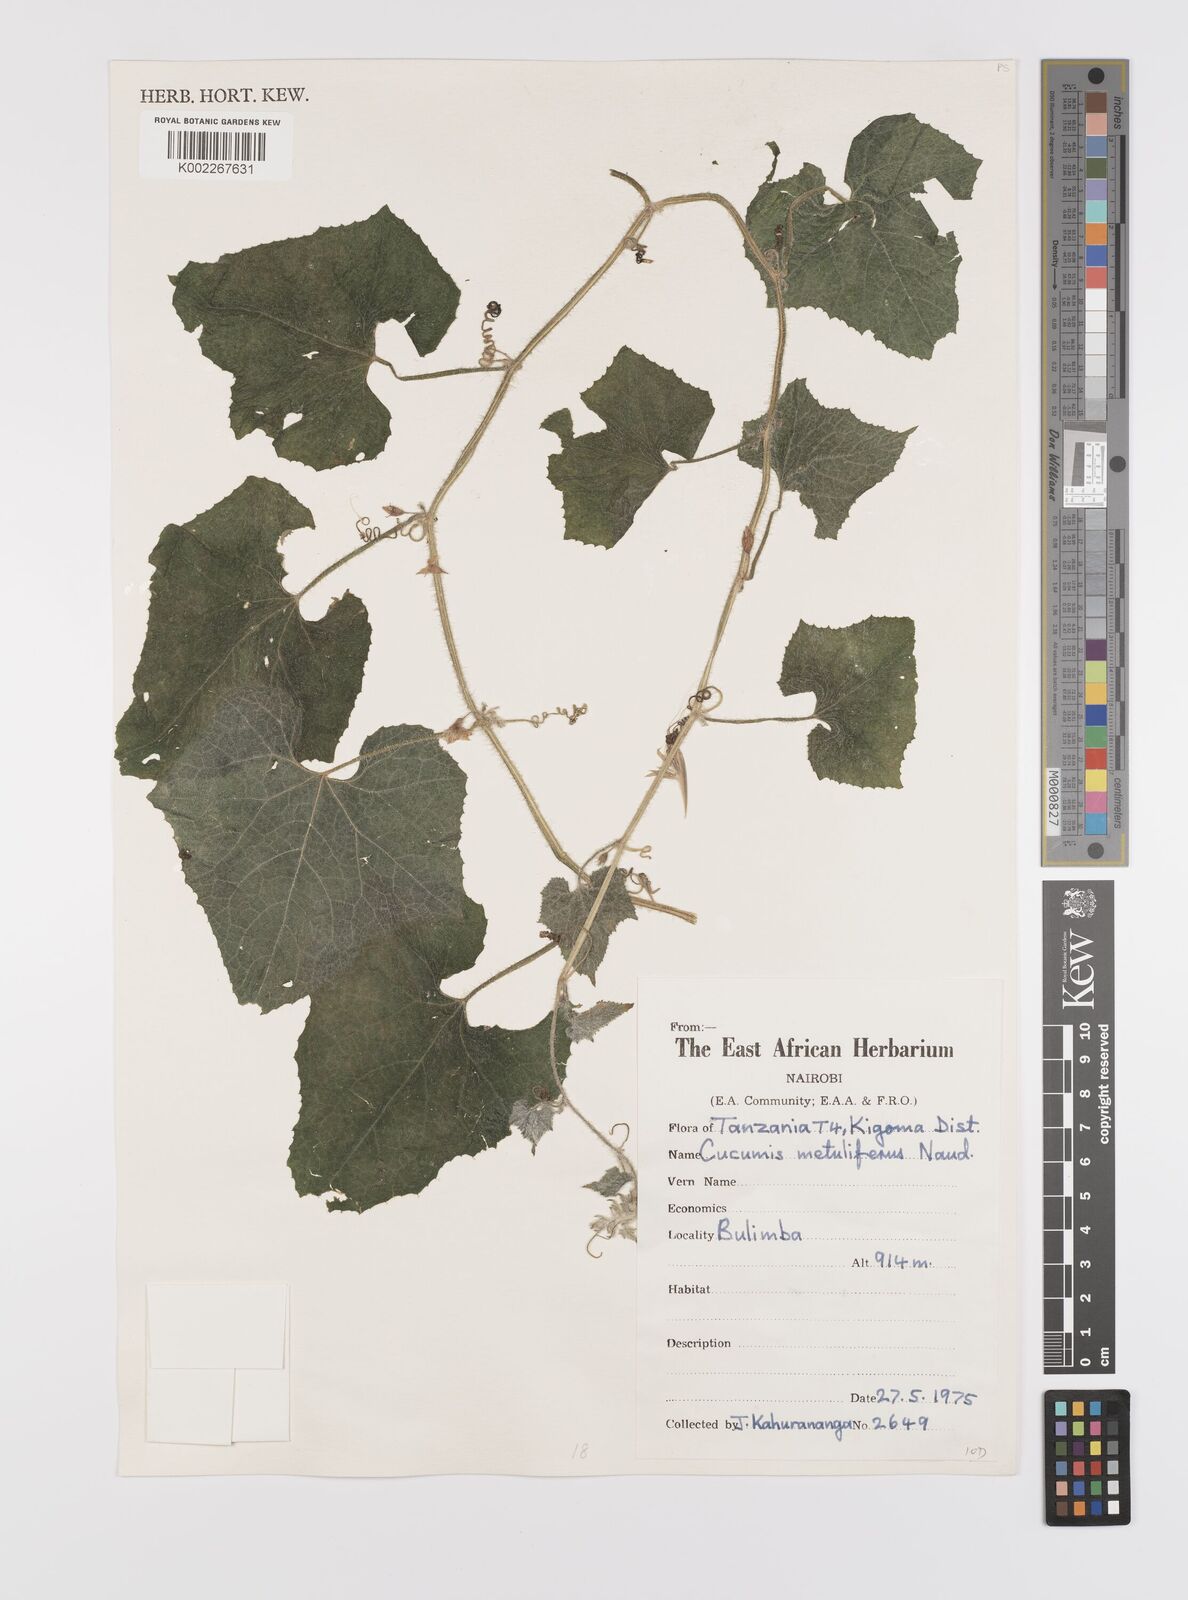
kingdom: Plantae
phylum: Tracheophyta
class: Magnoliopsida
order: Cucurbitales
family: Cucurbitaceae
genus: Cucumis
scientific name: Cucumis metuliferus
